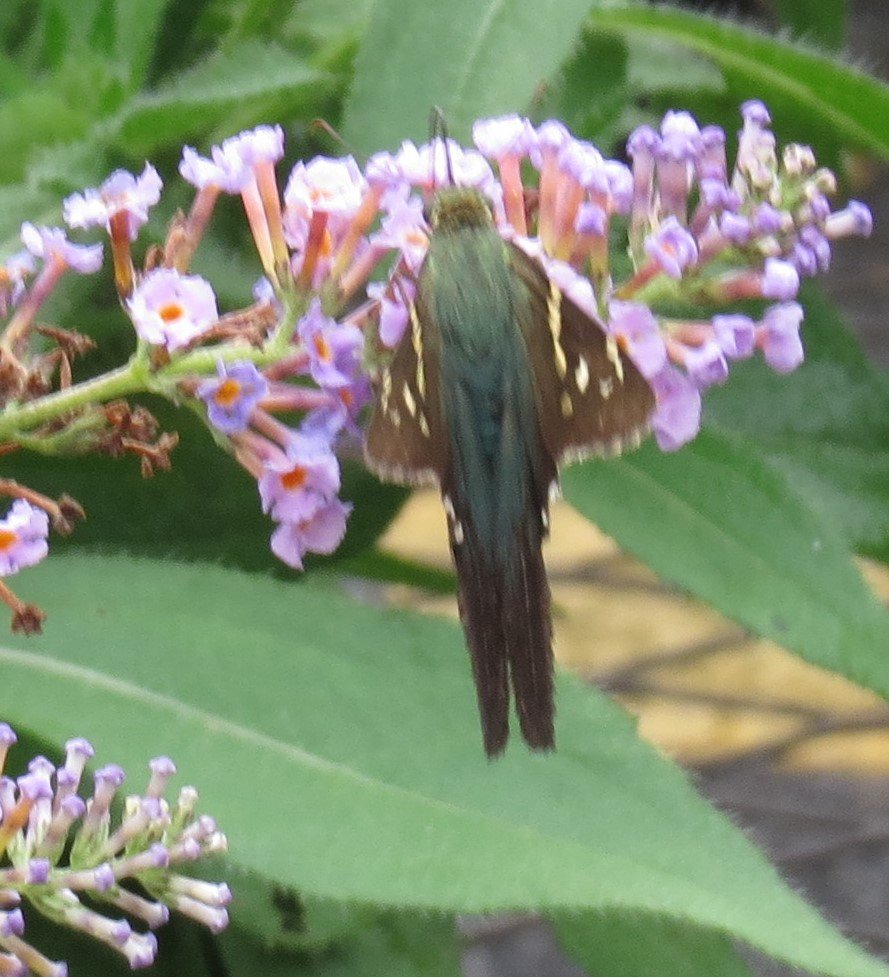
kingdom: Animalia
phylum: Arthropoda
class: Insecta
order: Lepidoptera
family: Hesperiidae
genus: Urbanus
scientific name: Urbanus proteus
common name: Long-tailed Skipper
